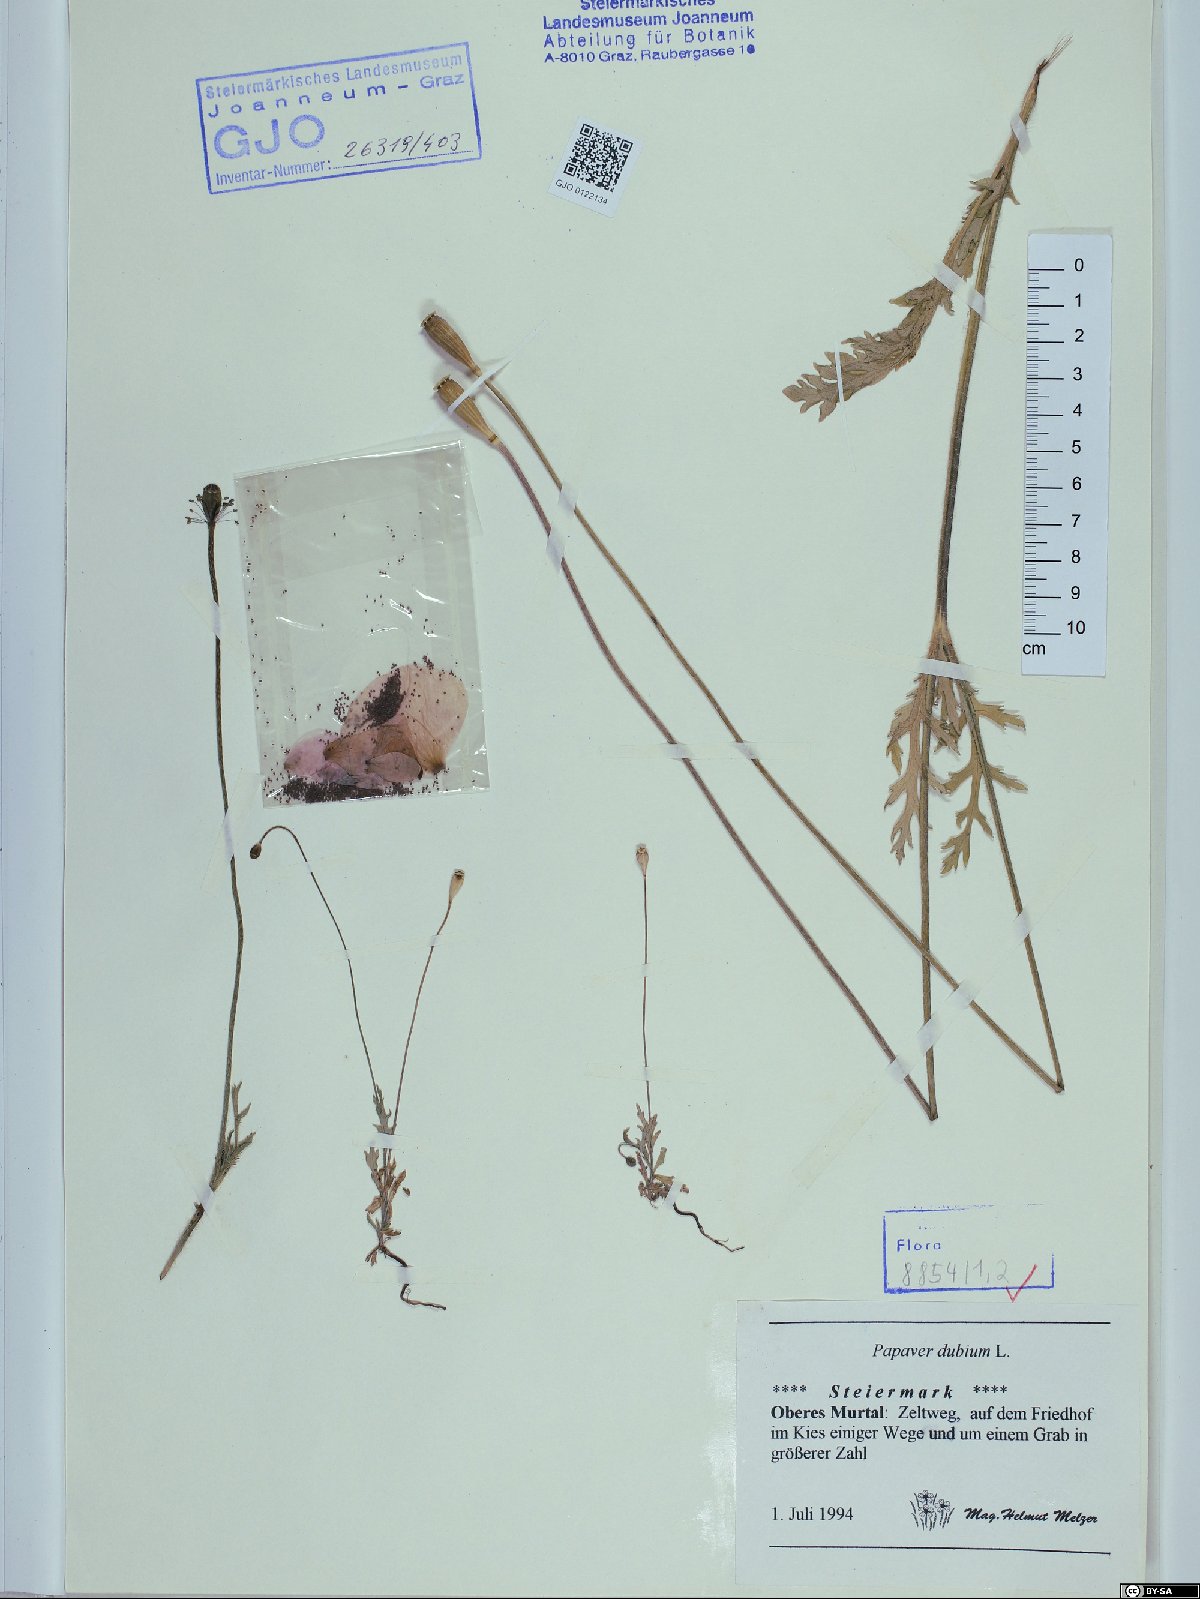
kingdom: Plantae
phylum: Tracheophyta
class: Magnoliopsida
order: Ranunculales
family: Papaveraceae
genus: Papaver
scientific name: Papaver dubium
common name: Long-headed poppy
